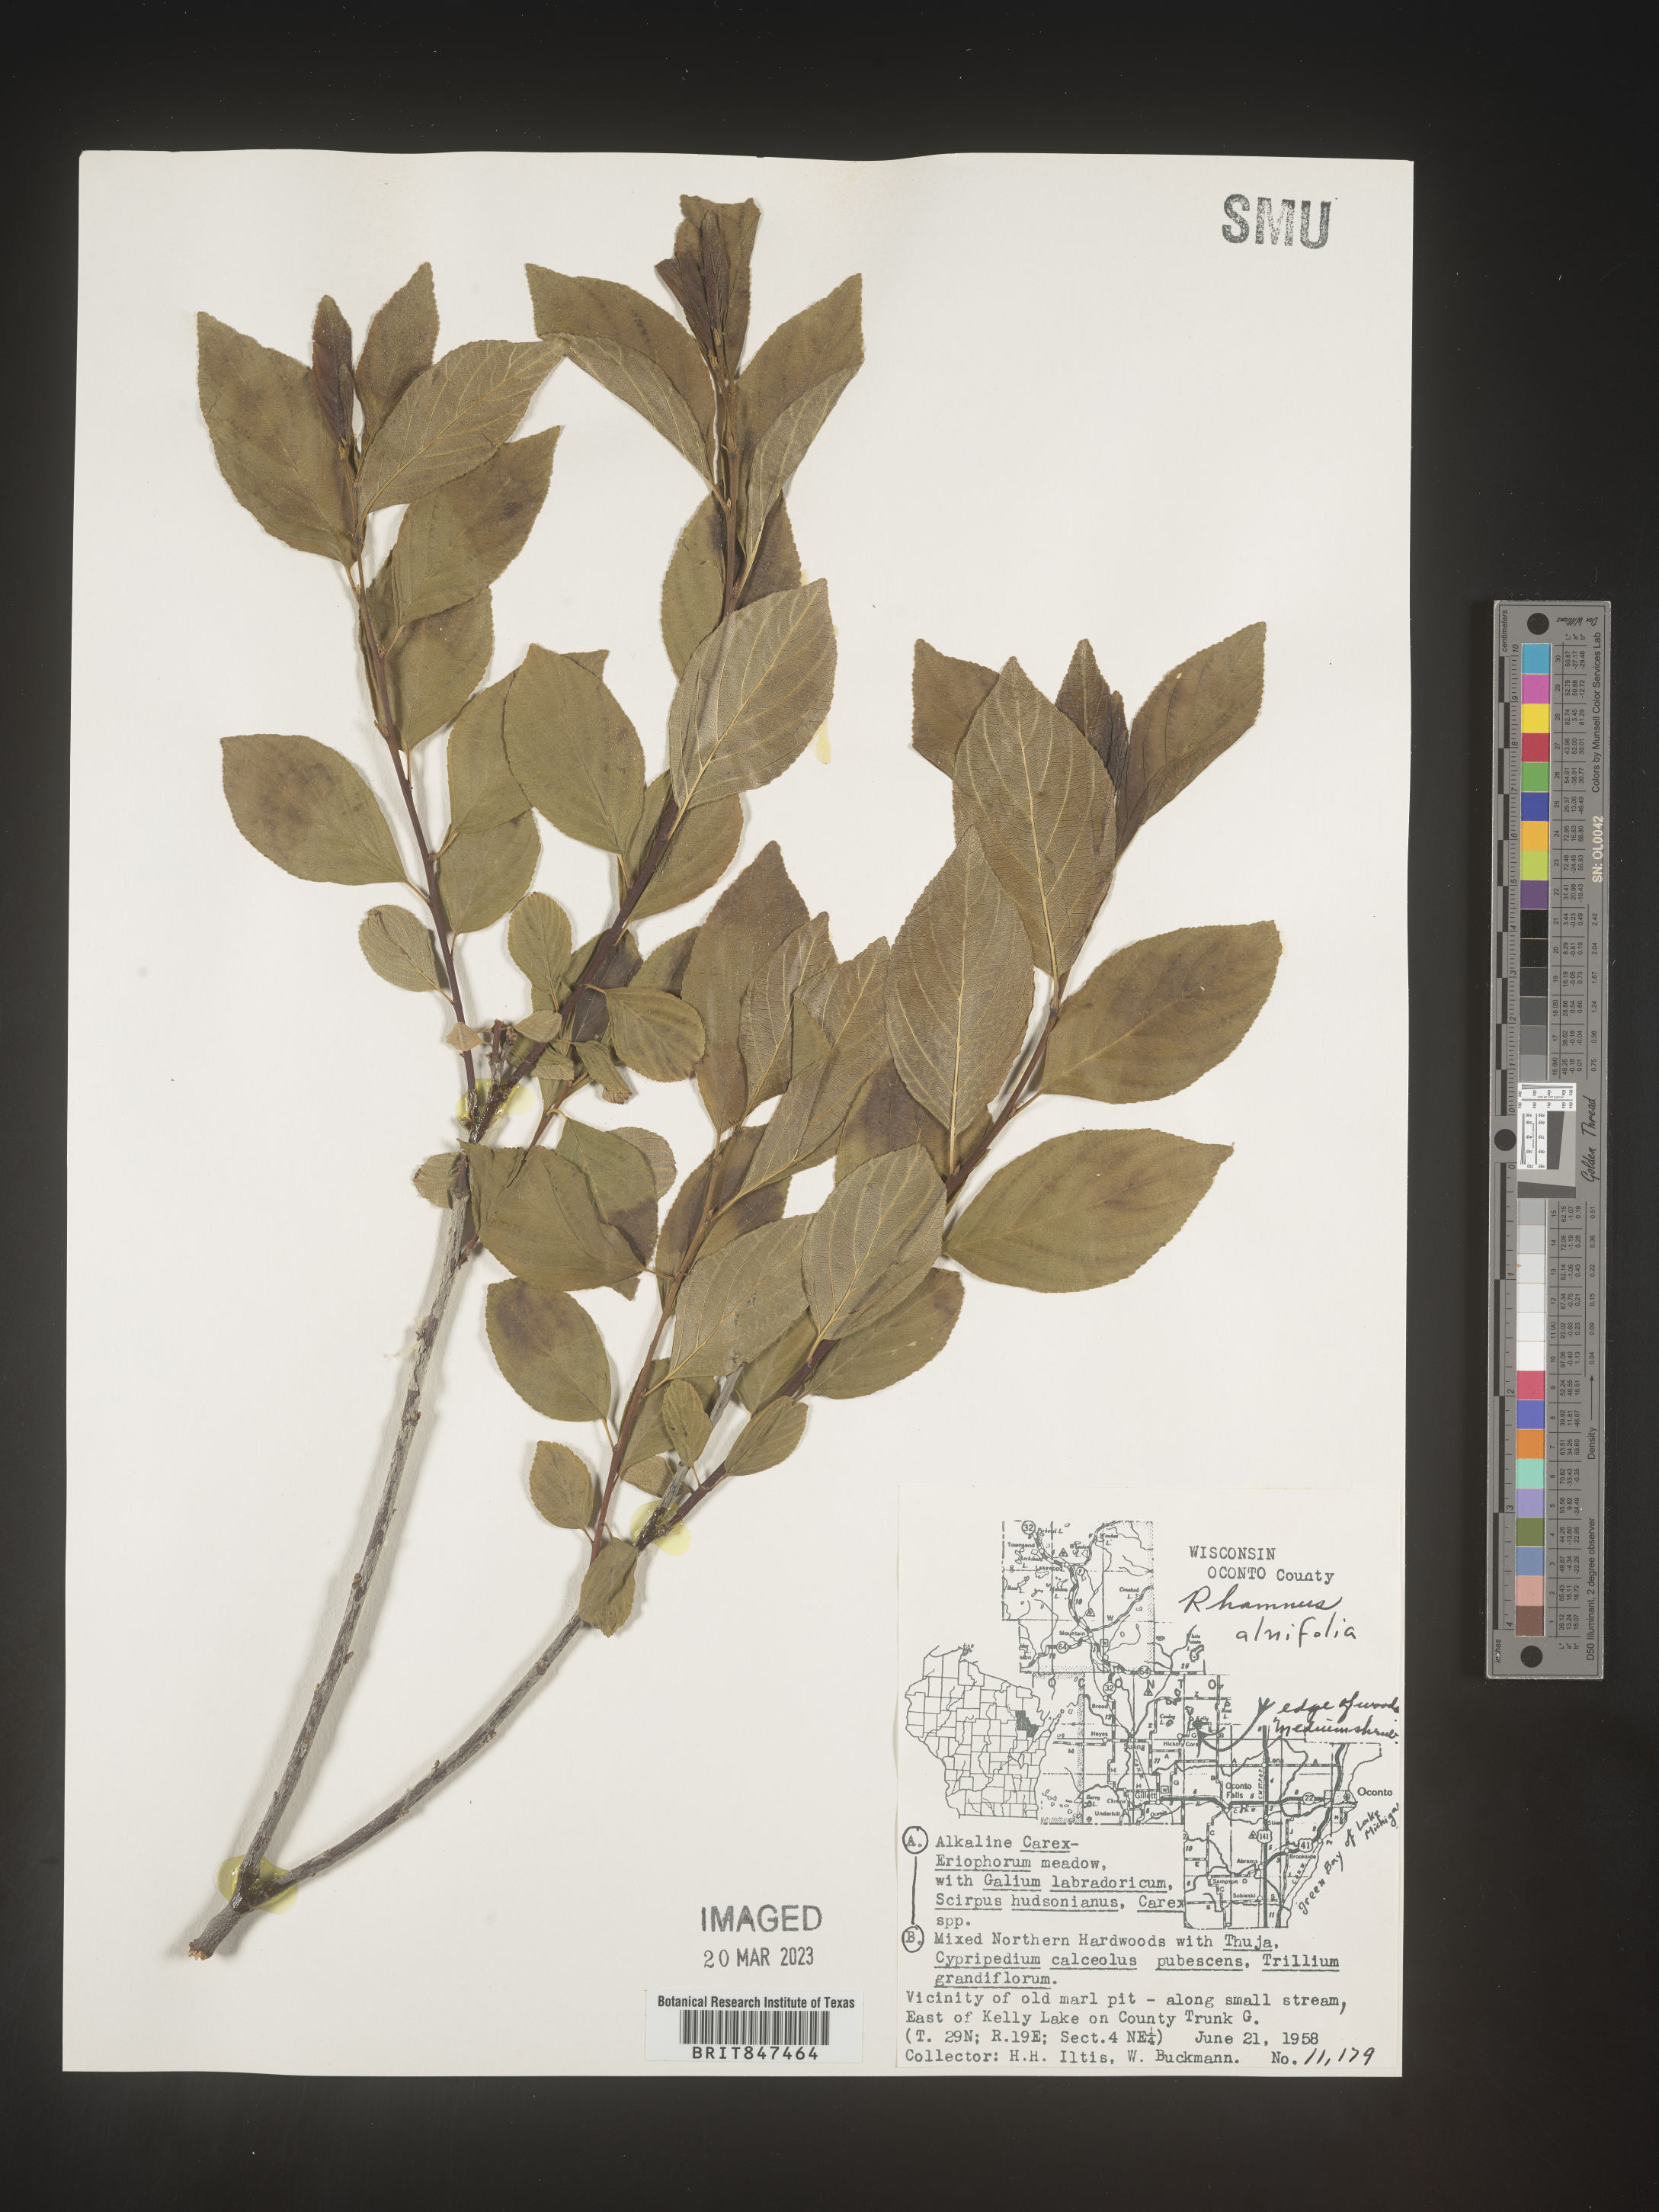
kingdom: Plantae
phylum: Tracheophyta
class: Magnoliopsida
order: Rosales
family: Rhamnaceae
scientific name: Rhamnaceae
